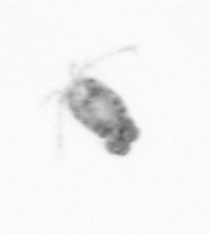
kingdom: Animalia
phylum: Arthropoda
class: Copepoda
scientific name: Copepoda
